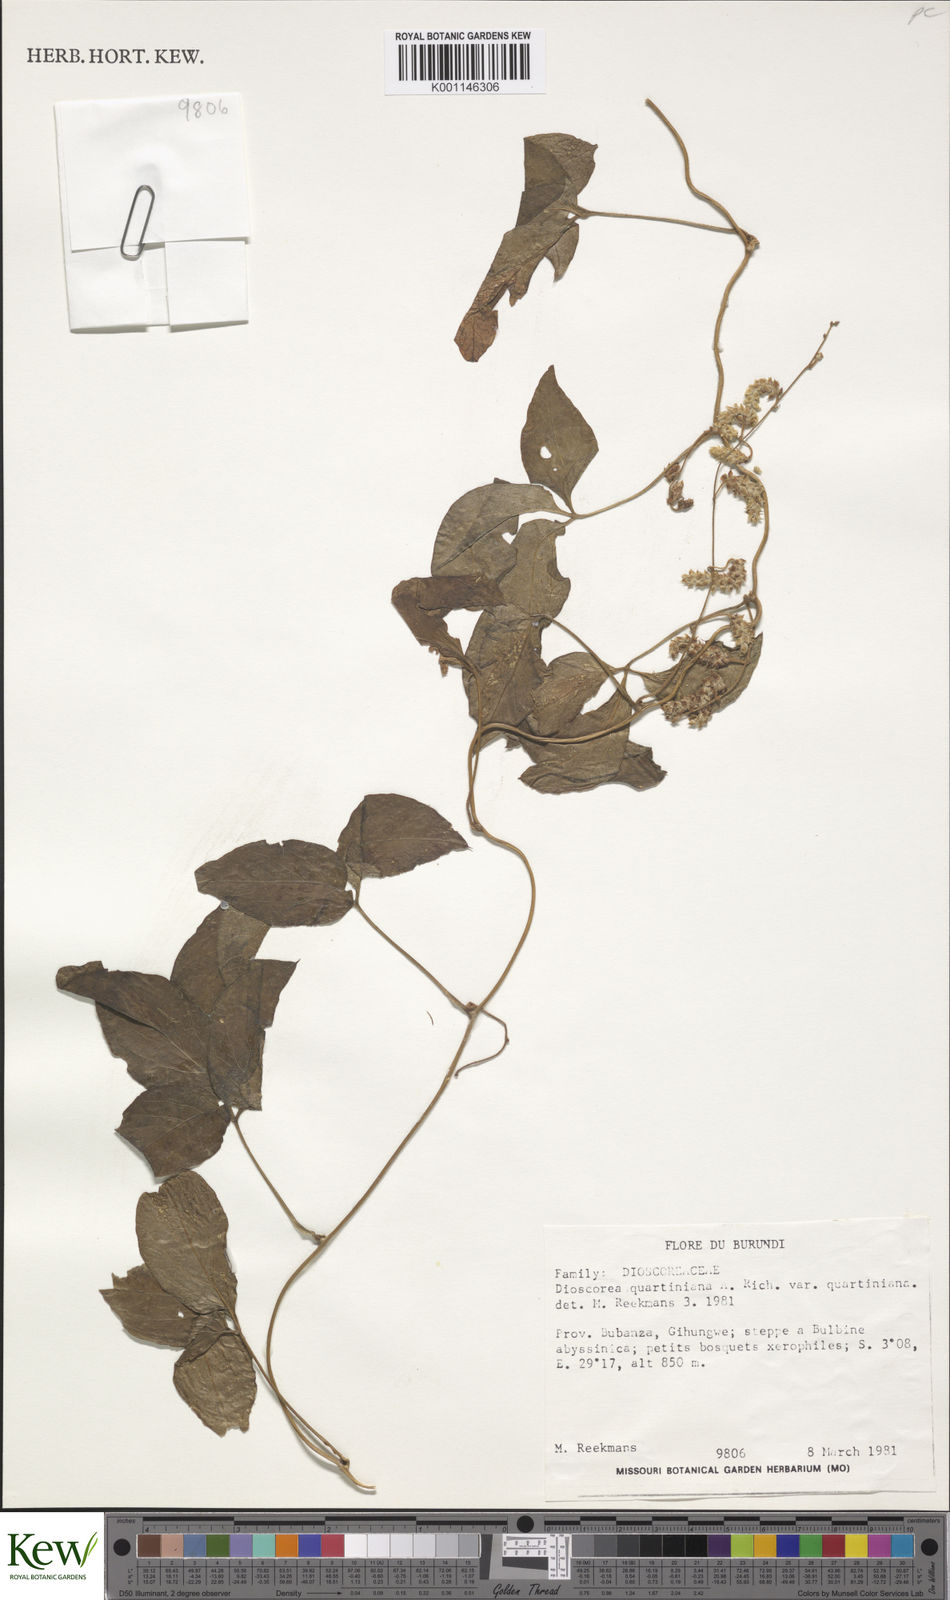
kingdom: Plantae
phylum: Tracheophyta
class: Liliopsida
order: Dioscoreales
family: Dioscoreaceae
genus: Dioscorea
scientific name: Dioscorea quartiniana
